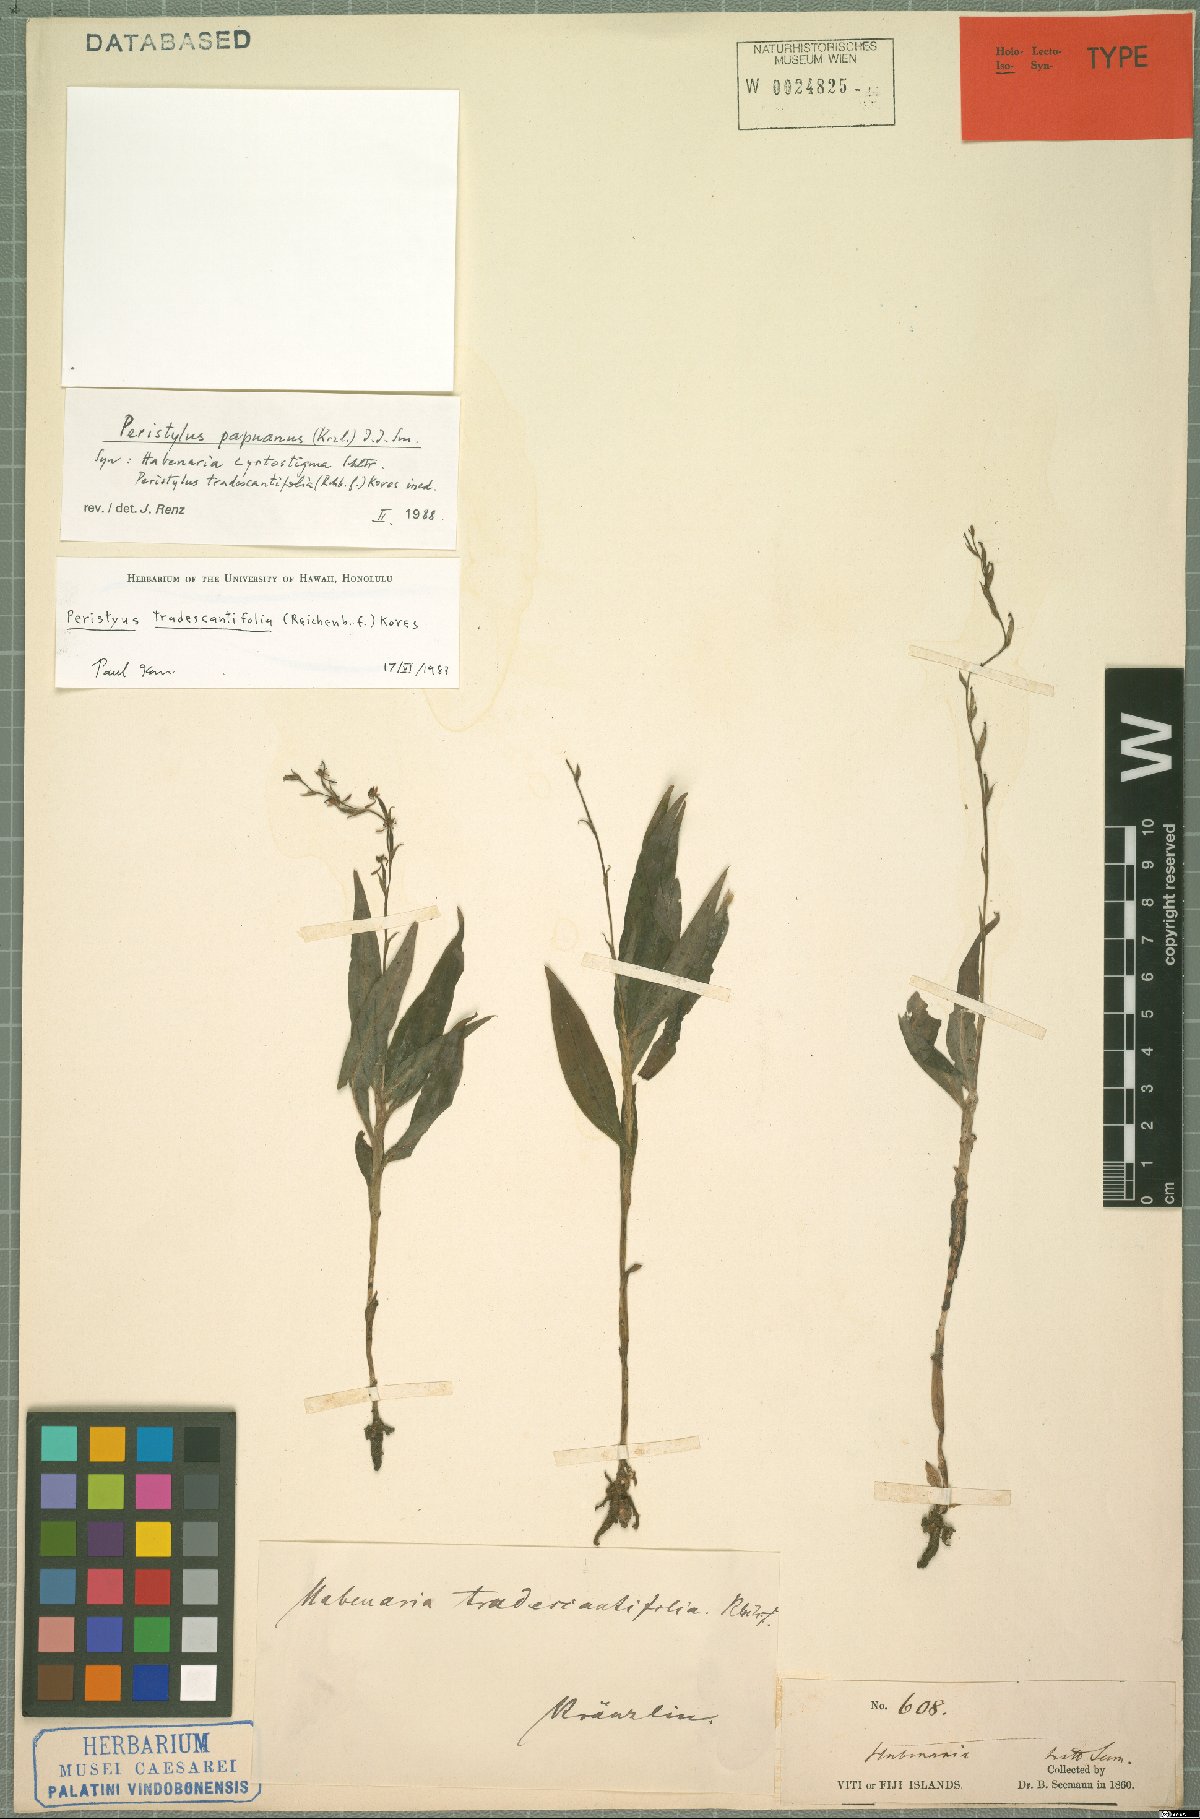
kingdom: Plantae
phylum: Tracheophyta
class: Liliopsida
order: Asparagales
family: Orchidaceae
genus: Peristylus
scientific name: Peristylus tradescantiifolius
